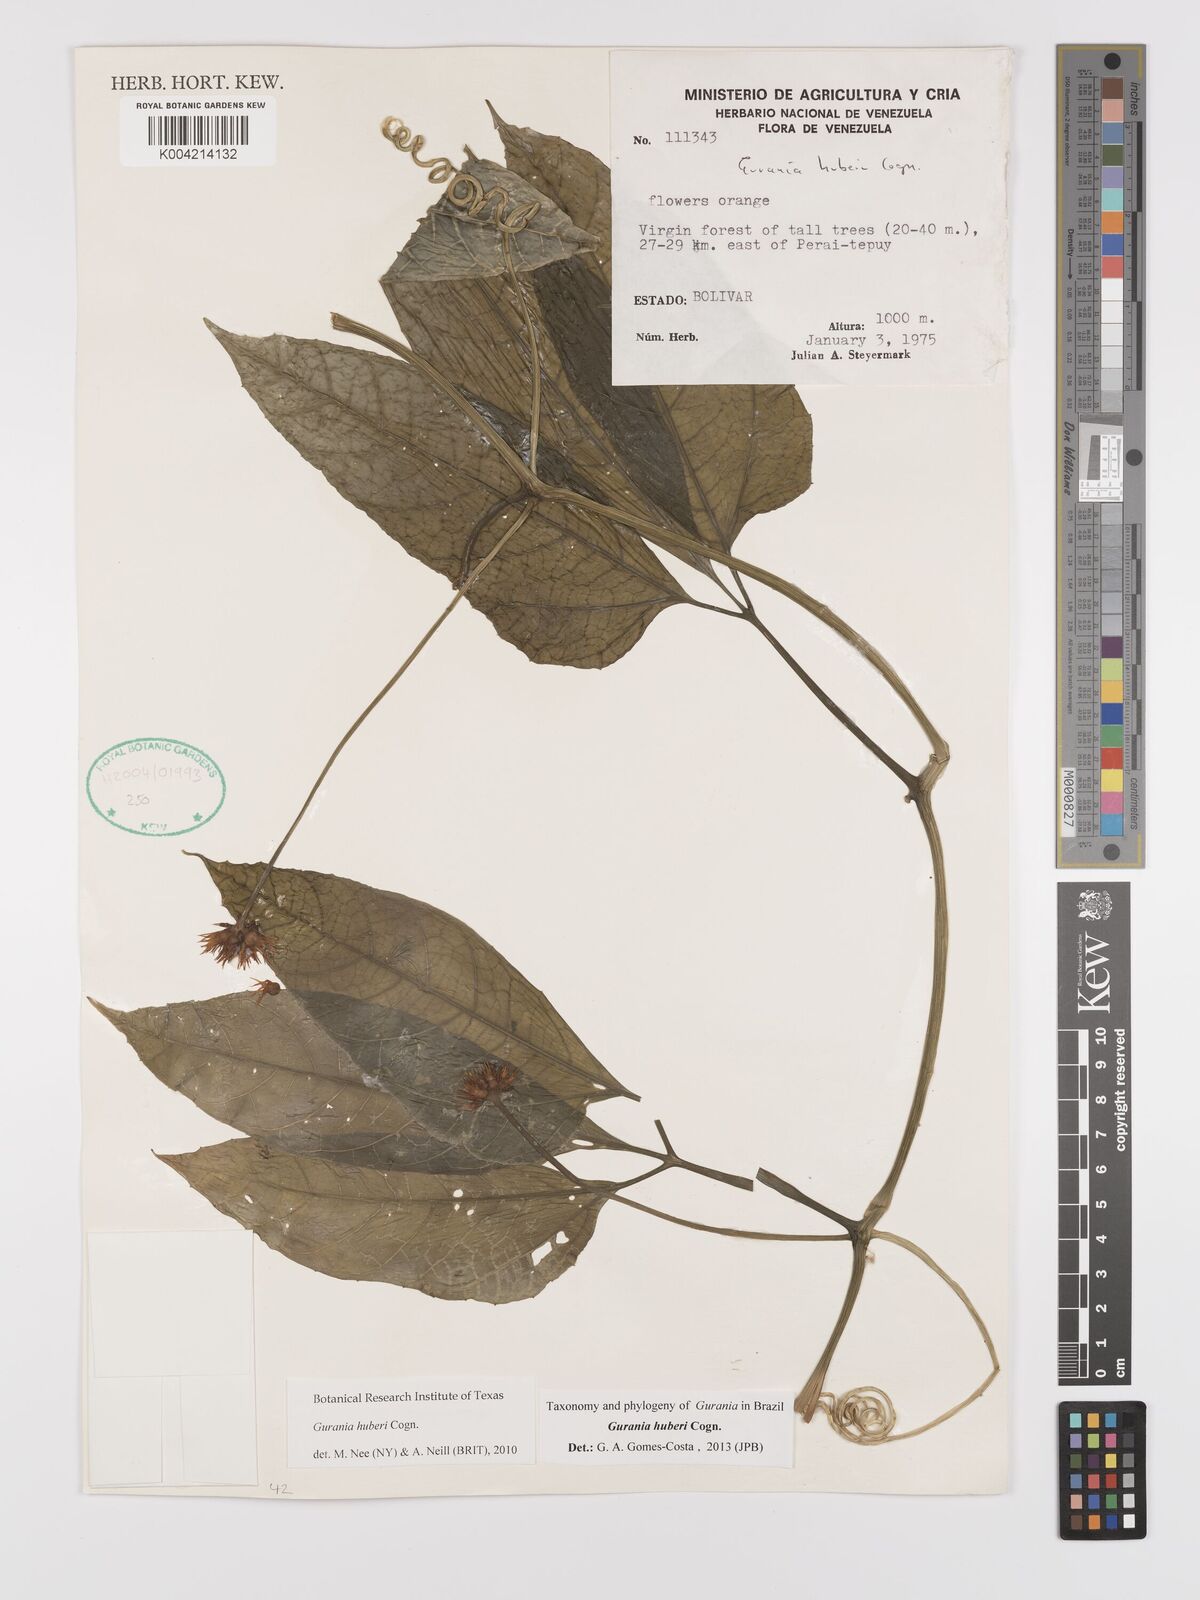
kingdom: Plantae
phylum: Tracheophyta
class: Magnoliopsida
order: Cucurbitales
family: Cucurbitaceae
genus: Gurania
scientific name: Gurania huberi
